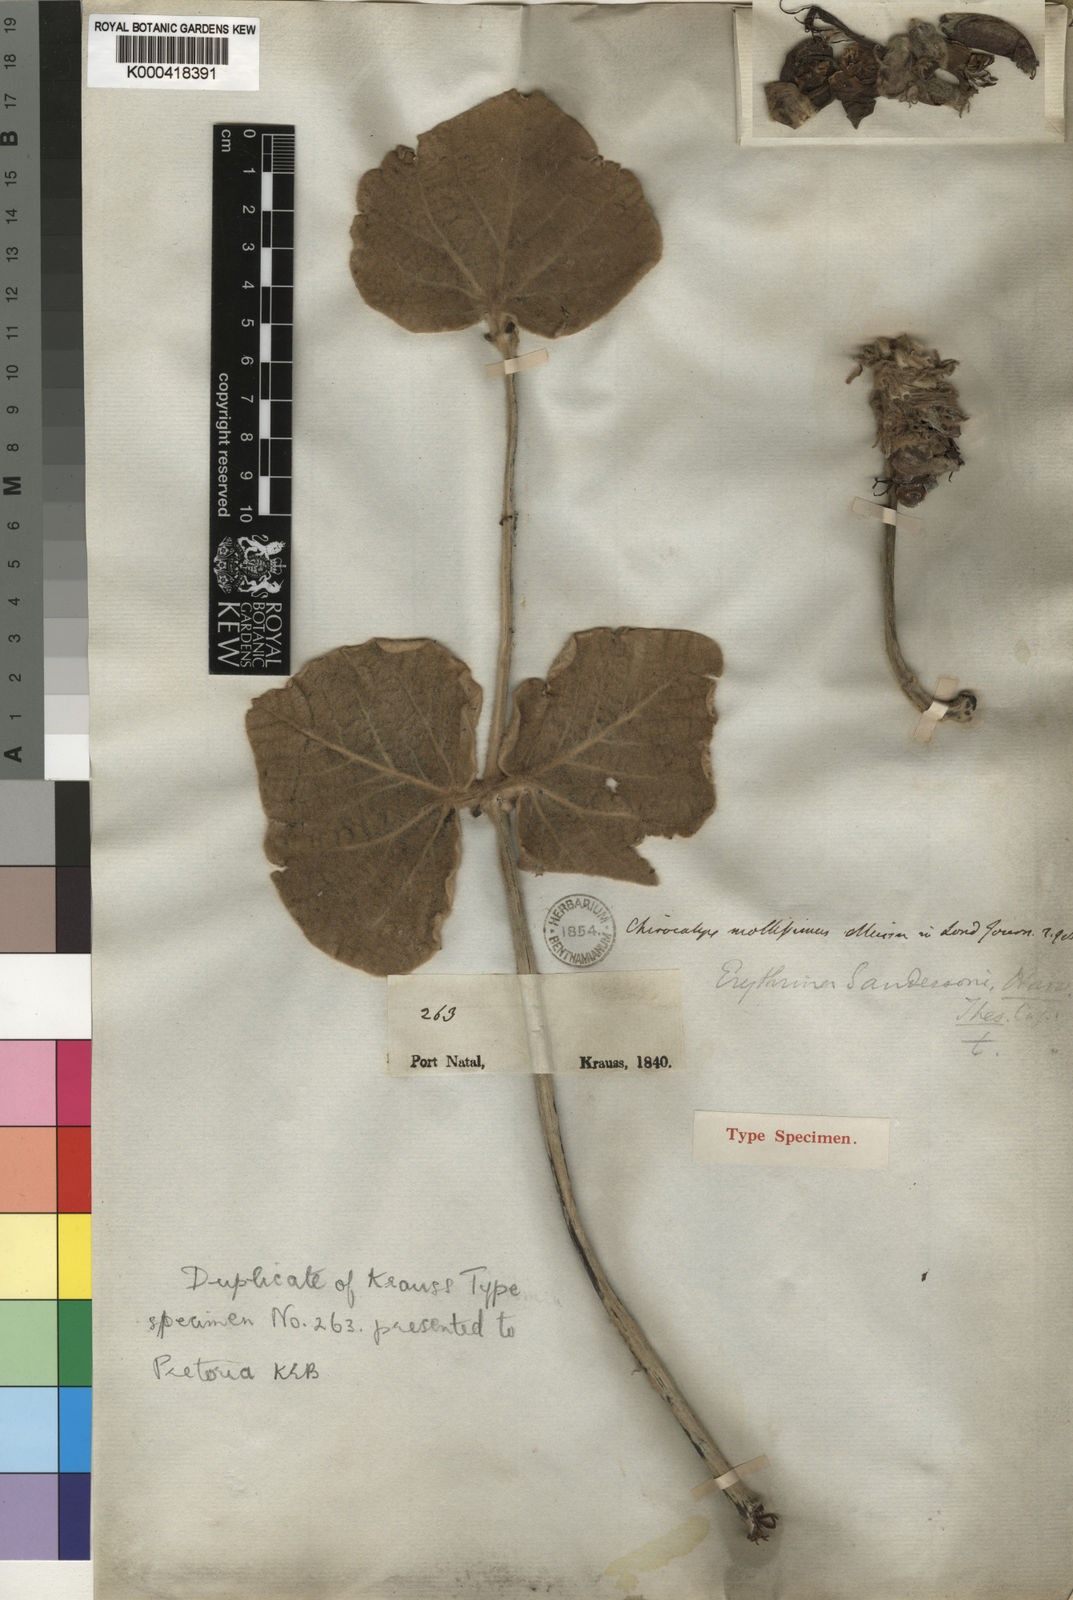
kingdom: Plantae
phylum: Tracheophyta
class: Magnoliopsida
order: Fabales
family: Fabaceae
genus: Erythrina
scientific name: Erythrina latissima
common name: Broad-leaved coral tree
